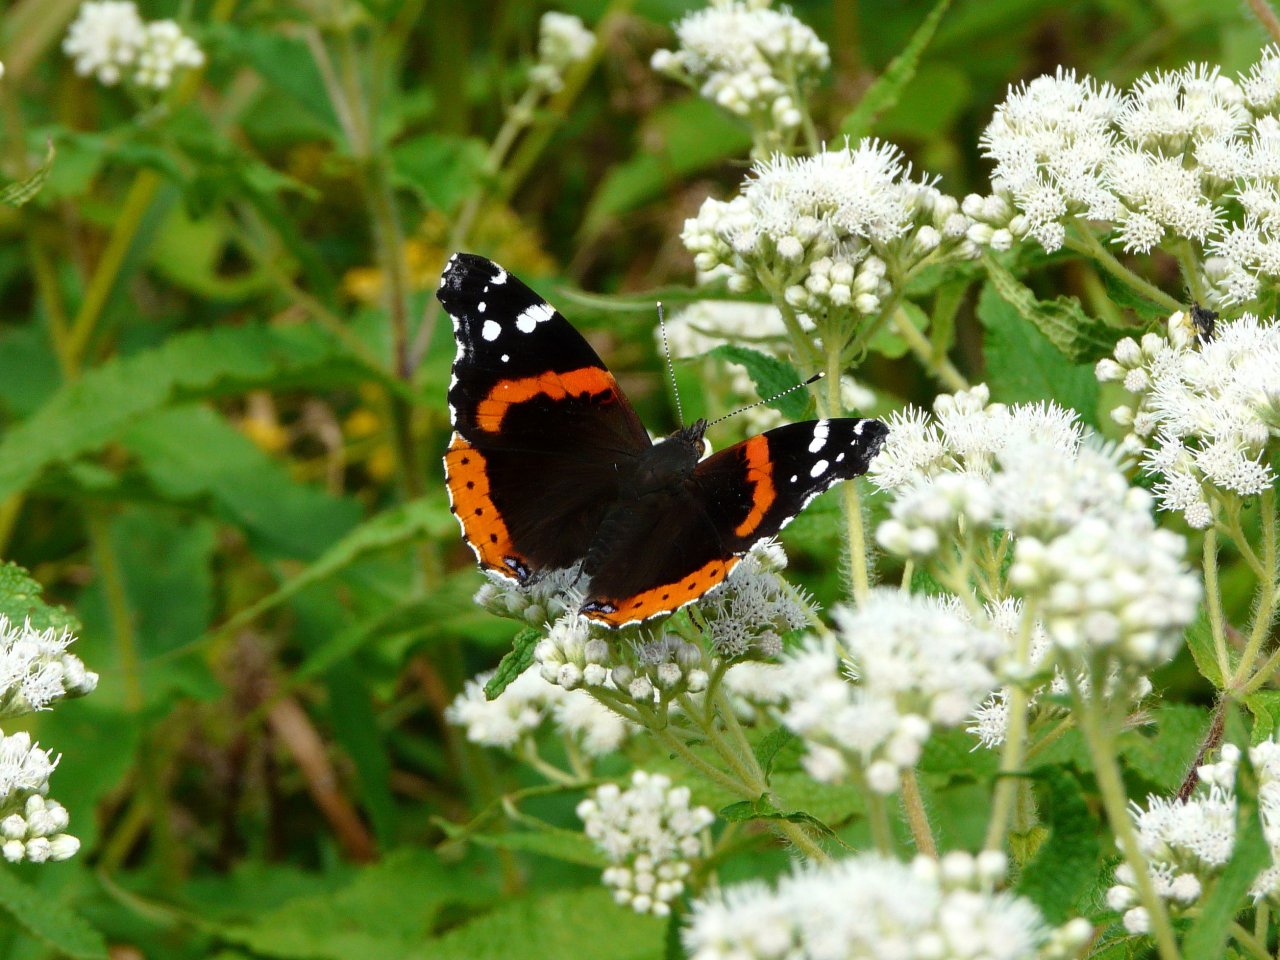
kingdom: Animalia
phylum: Arthropoda
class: Insecta
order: Lepidoptera
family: Nymphalidae
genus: Vanessa
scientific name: Vanessa atalanta
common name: Red Admiral
